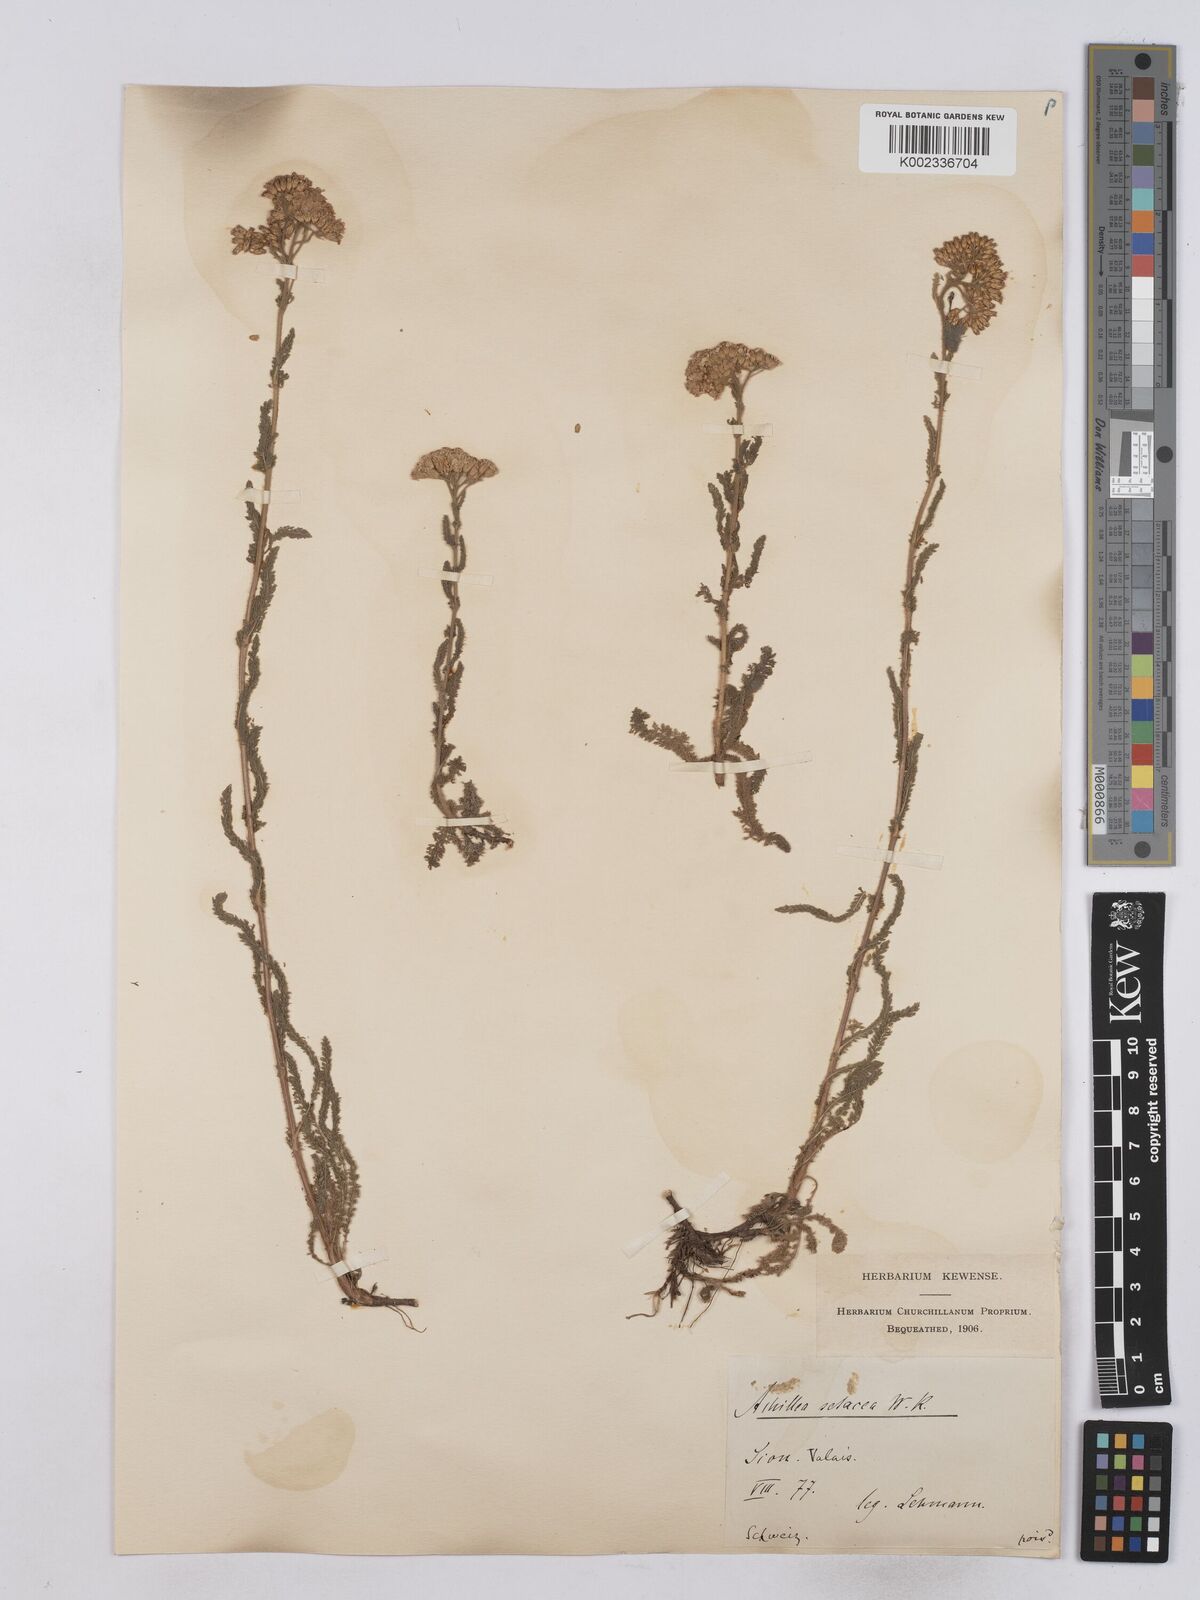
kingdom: Plantae
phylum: Tracheophyta
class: Magnoliopsida
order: Asterales
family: Asteraceae
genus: Achillea
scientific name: Achillea setacea
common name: Bristly yarrow
